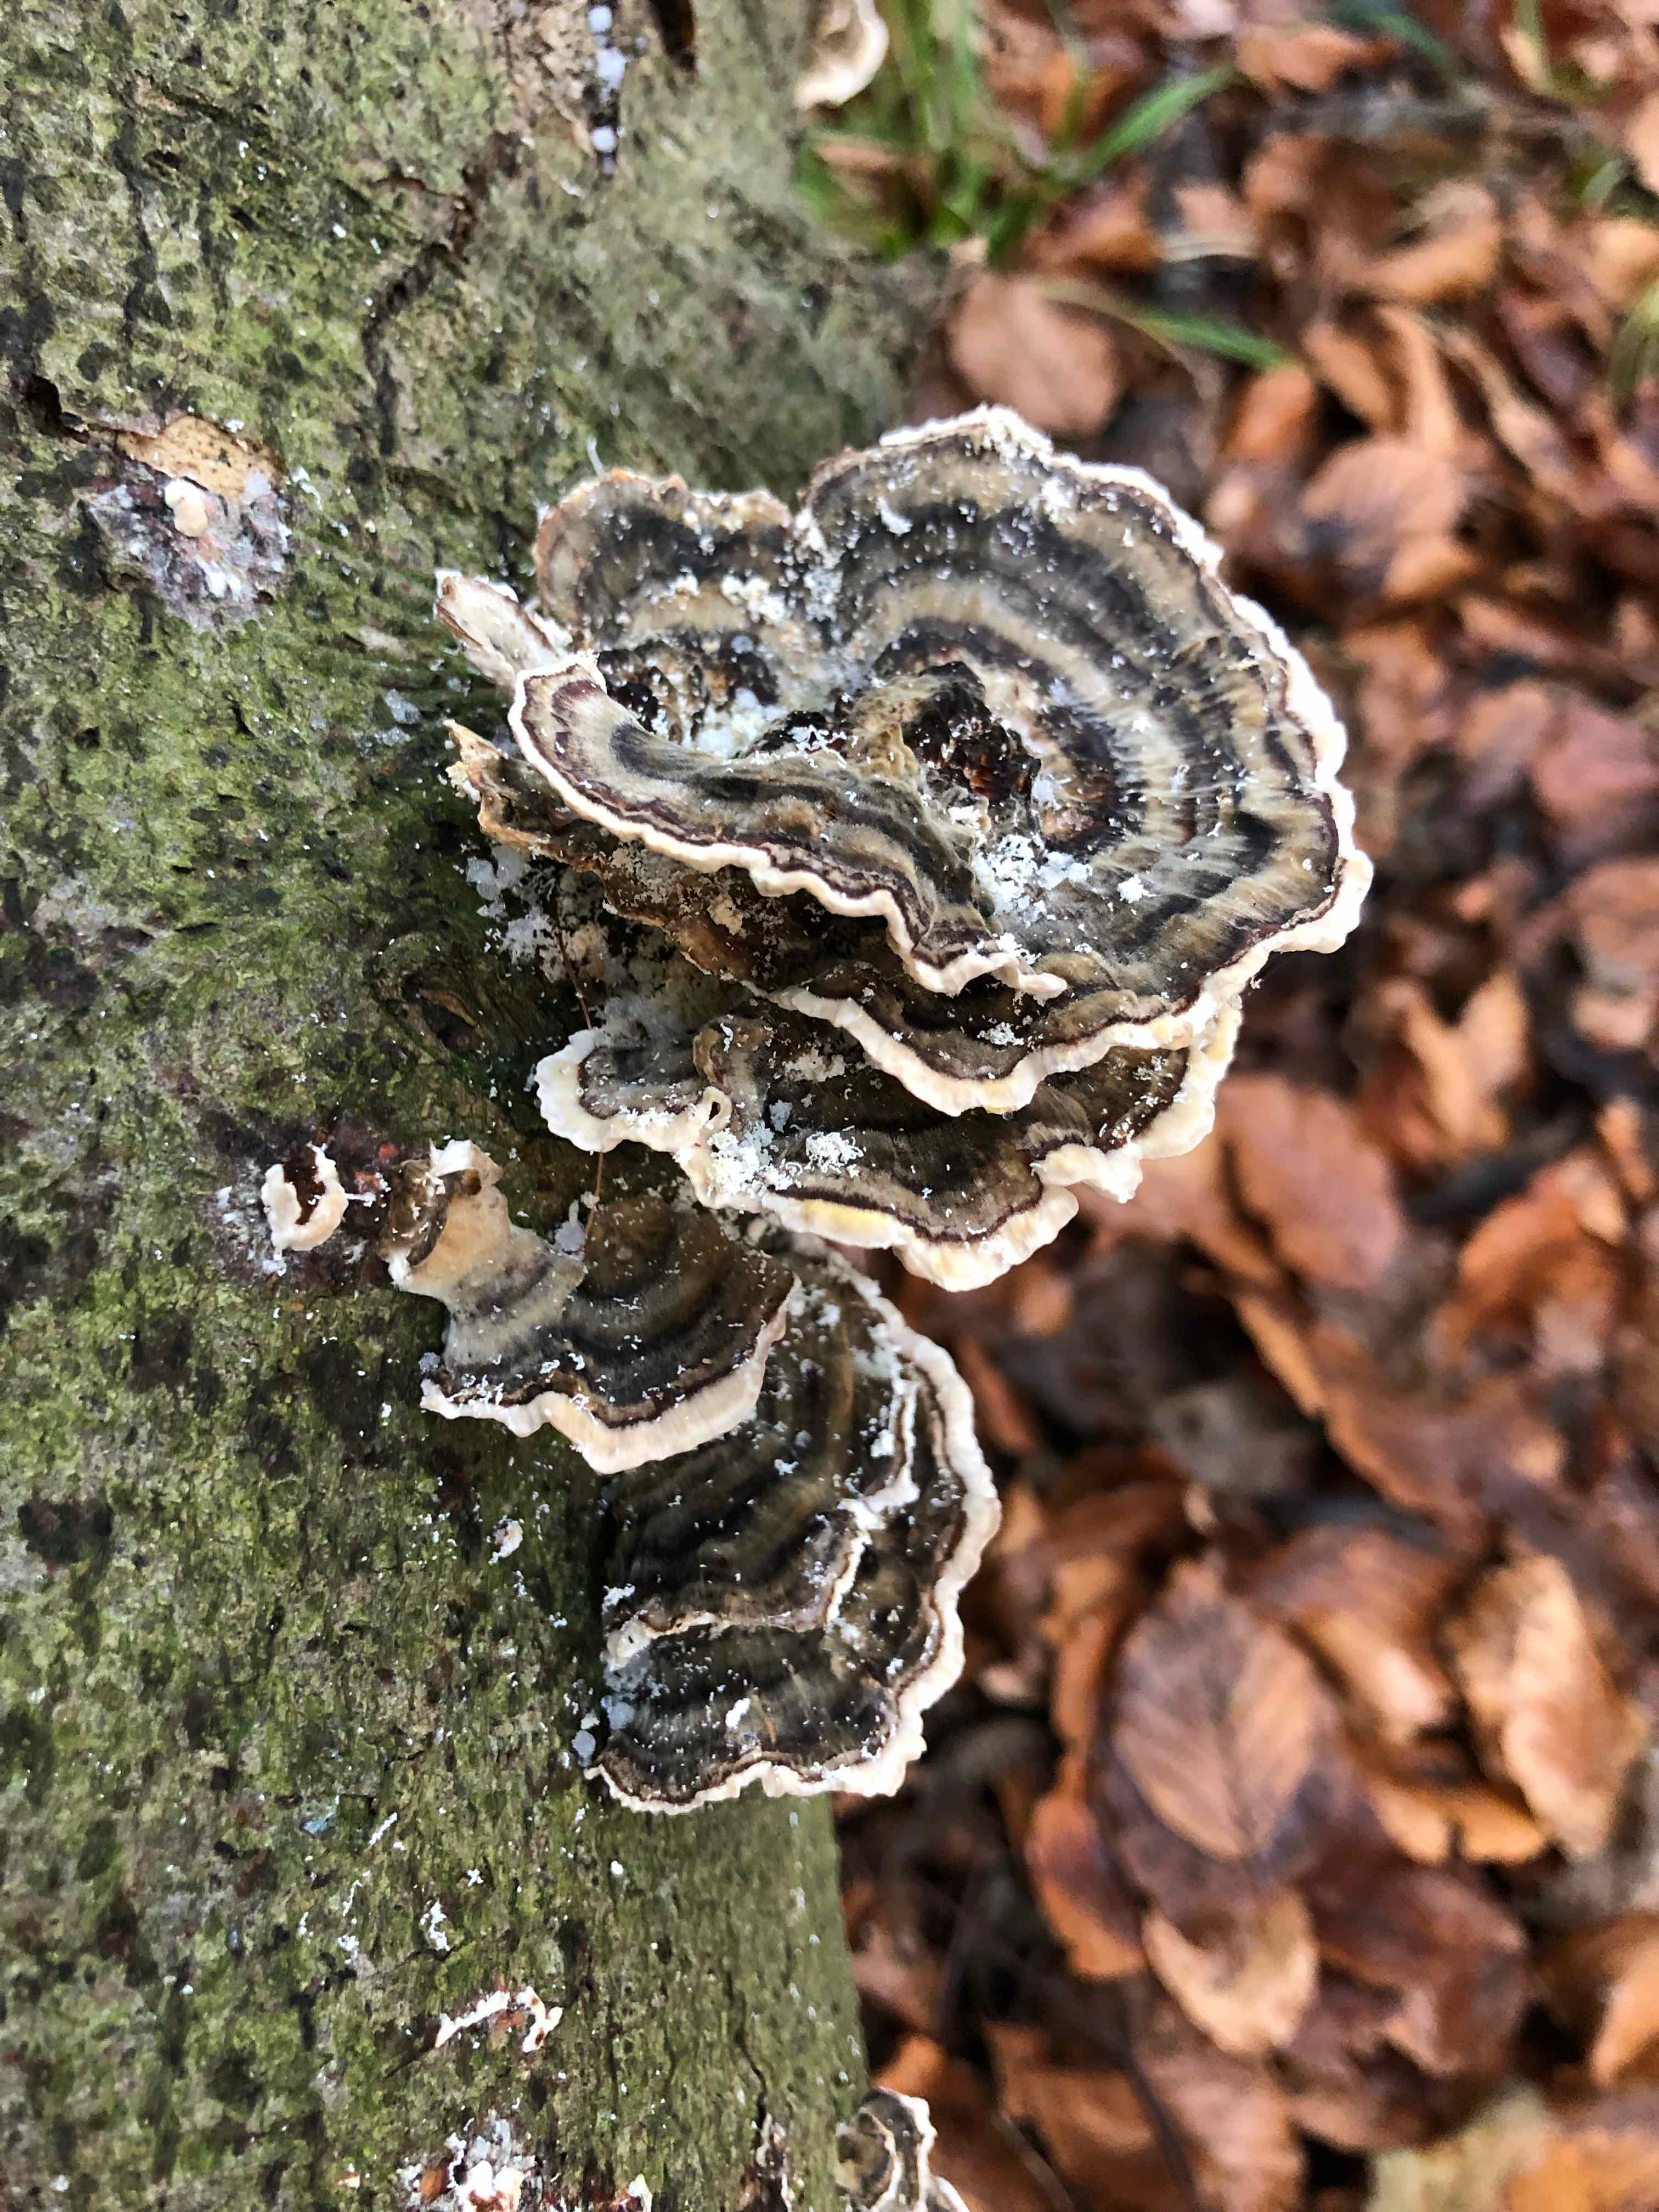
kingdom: Fungi
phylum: Basidiomycota
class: Agaricomycetes
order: Polyporales
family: Polyporaceae
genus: Trametes
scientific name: Trametes versicolor
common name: broget læderporesvamp
